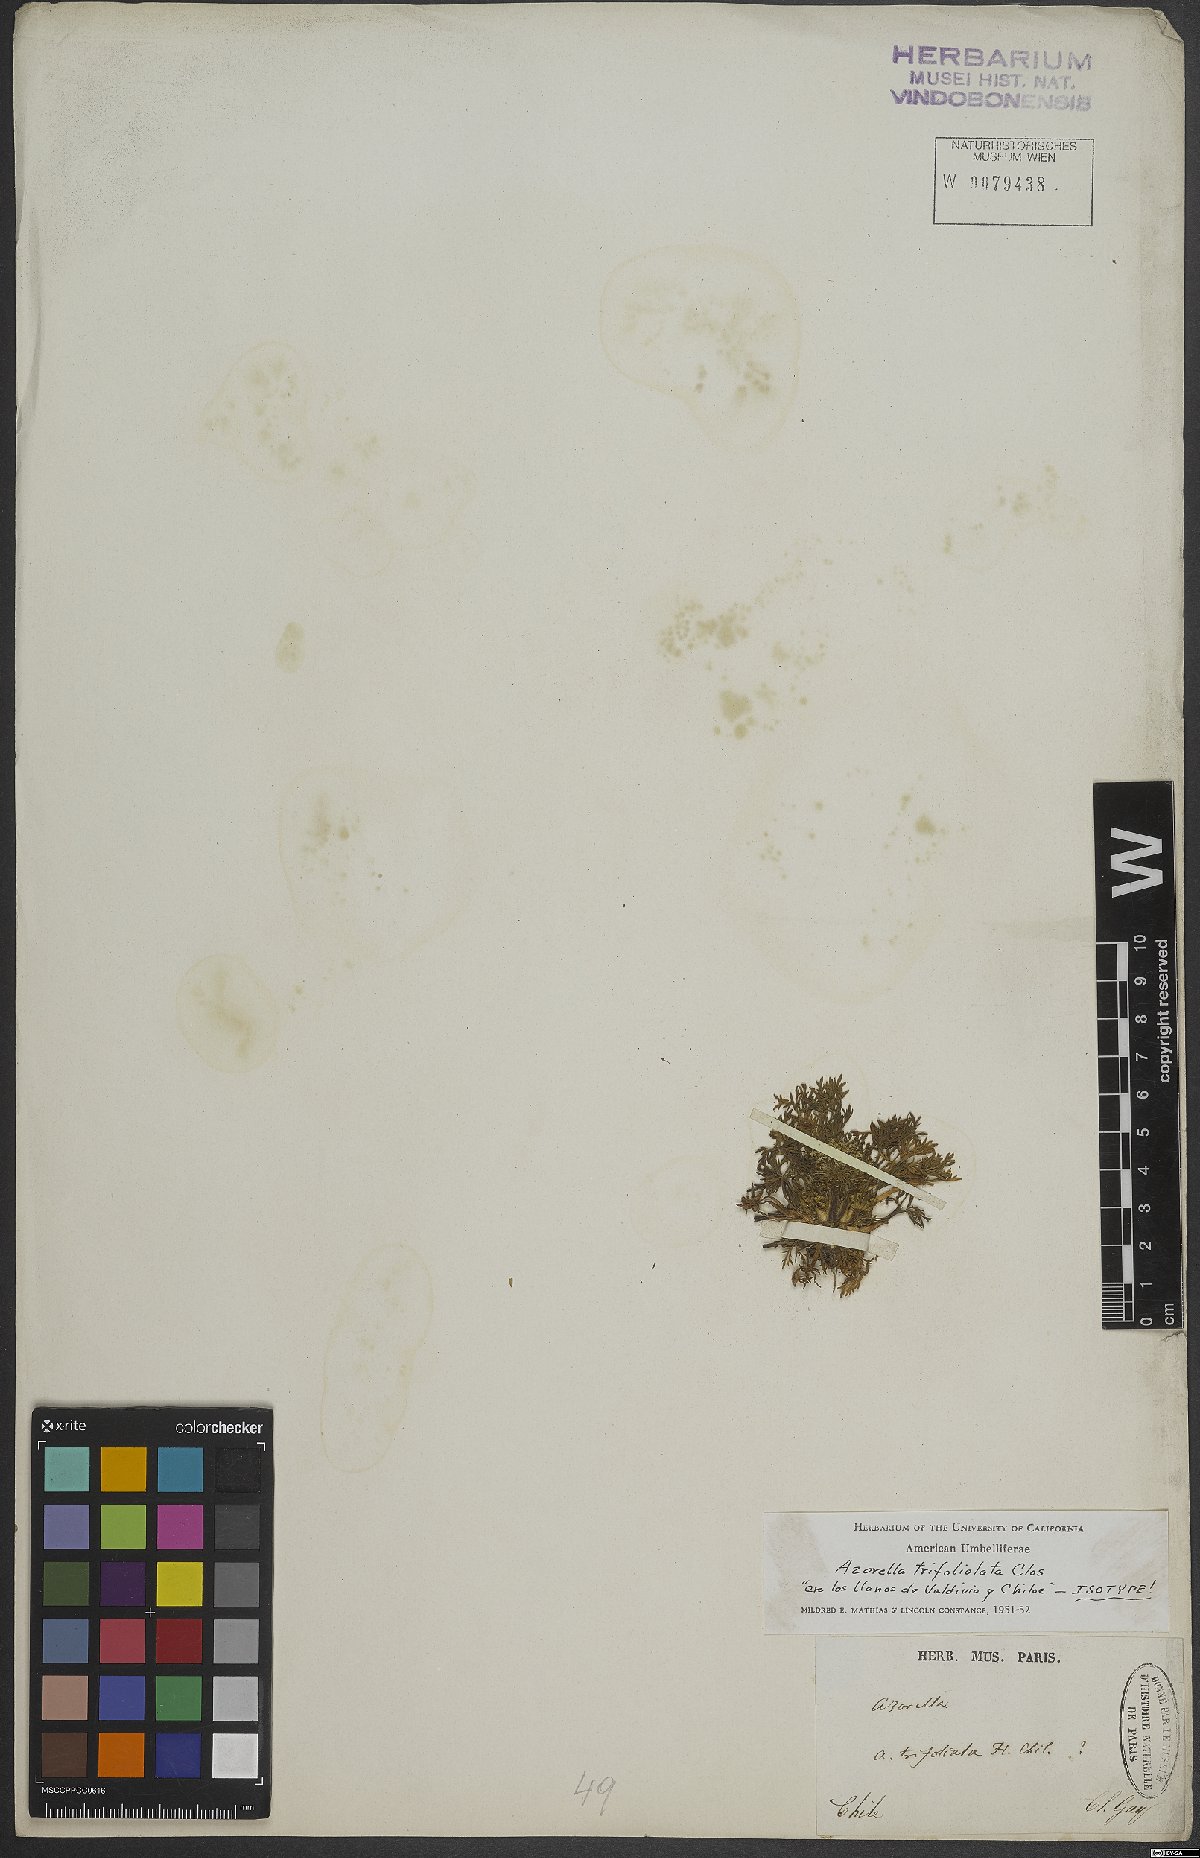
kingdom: Plantae
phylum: Tracheophyta
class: Magnoliopsida
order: Apiales
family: Apiaceae
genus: Azorella
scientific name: Azorella trifoliolata
